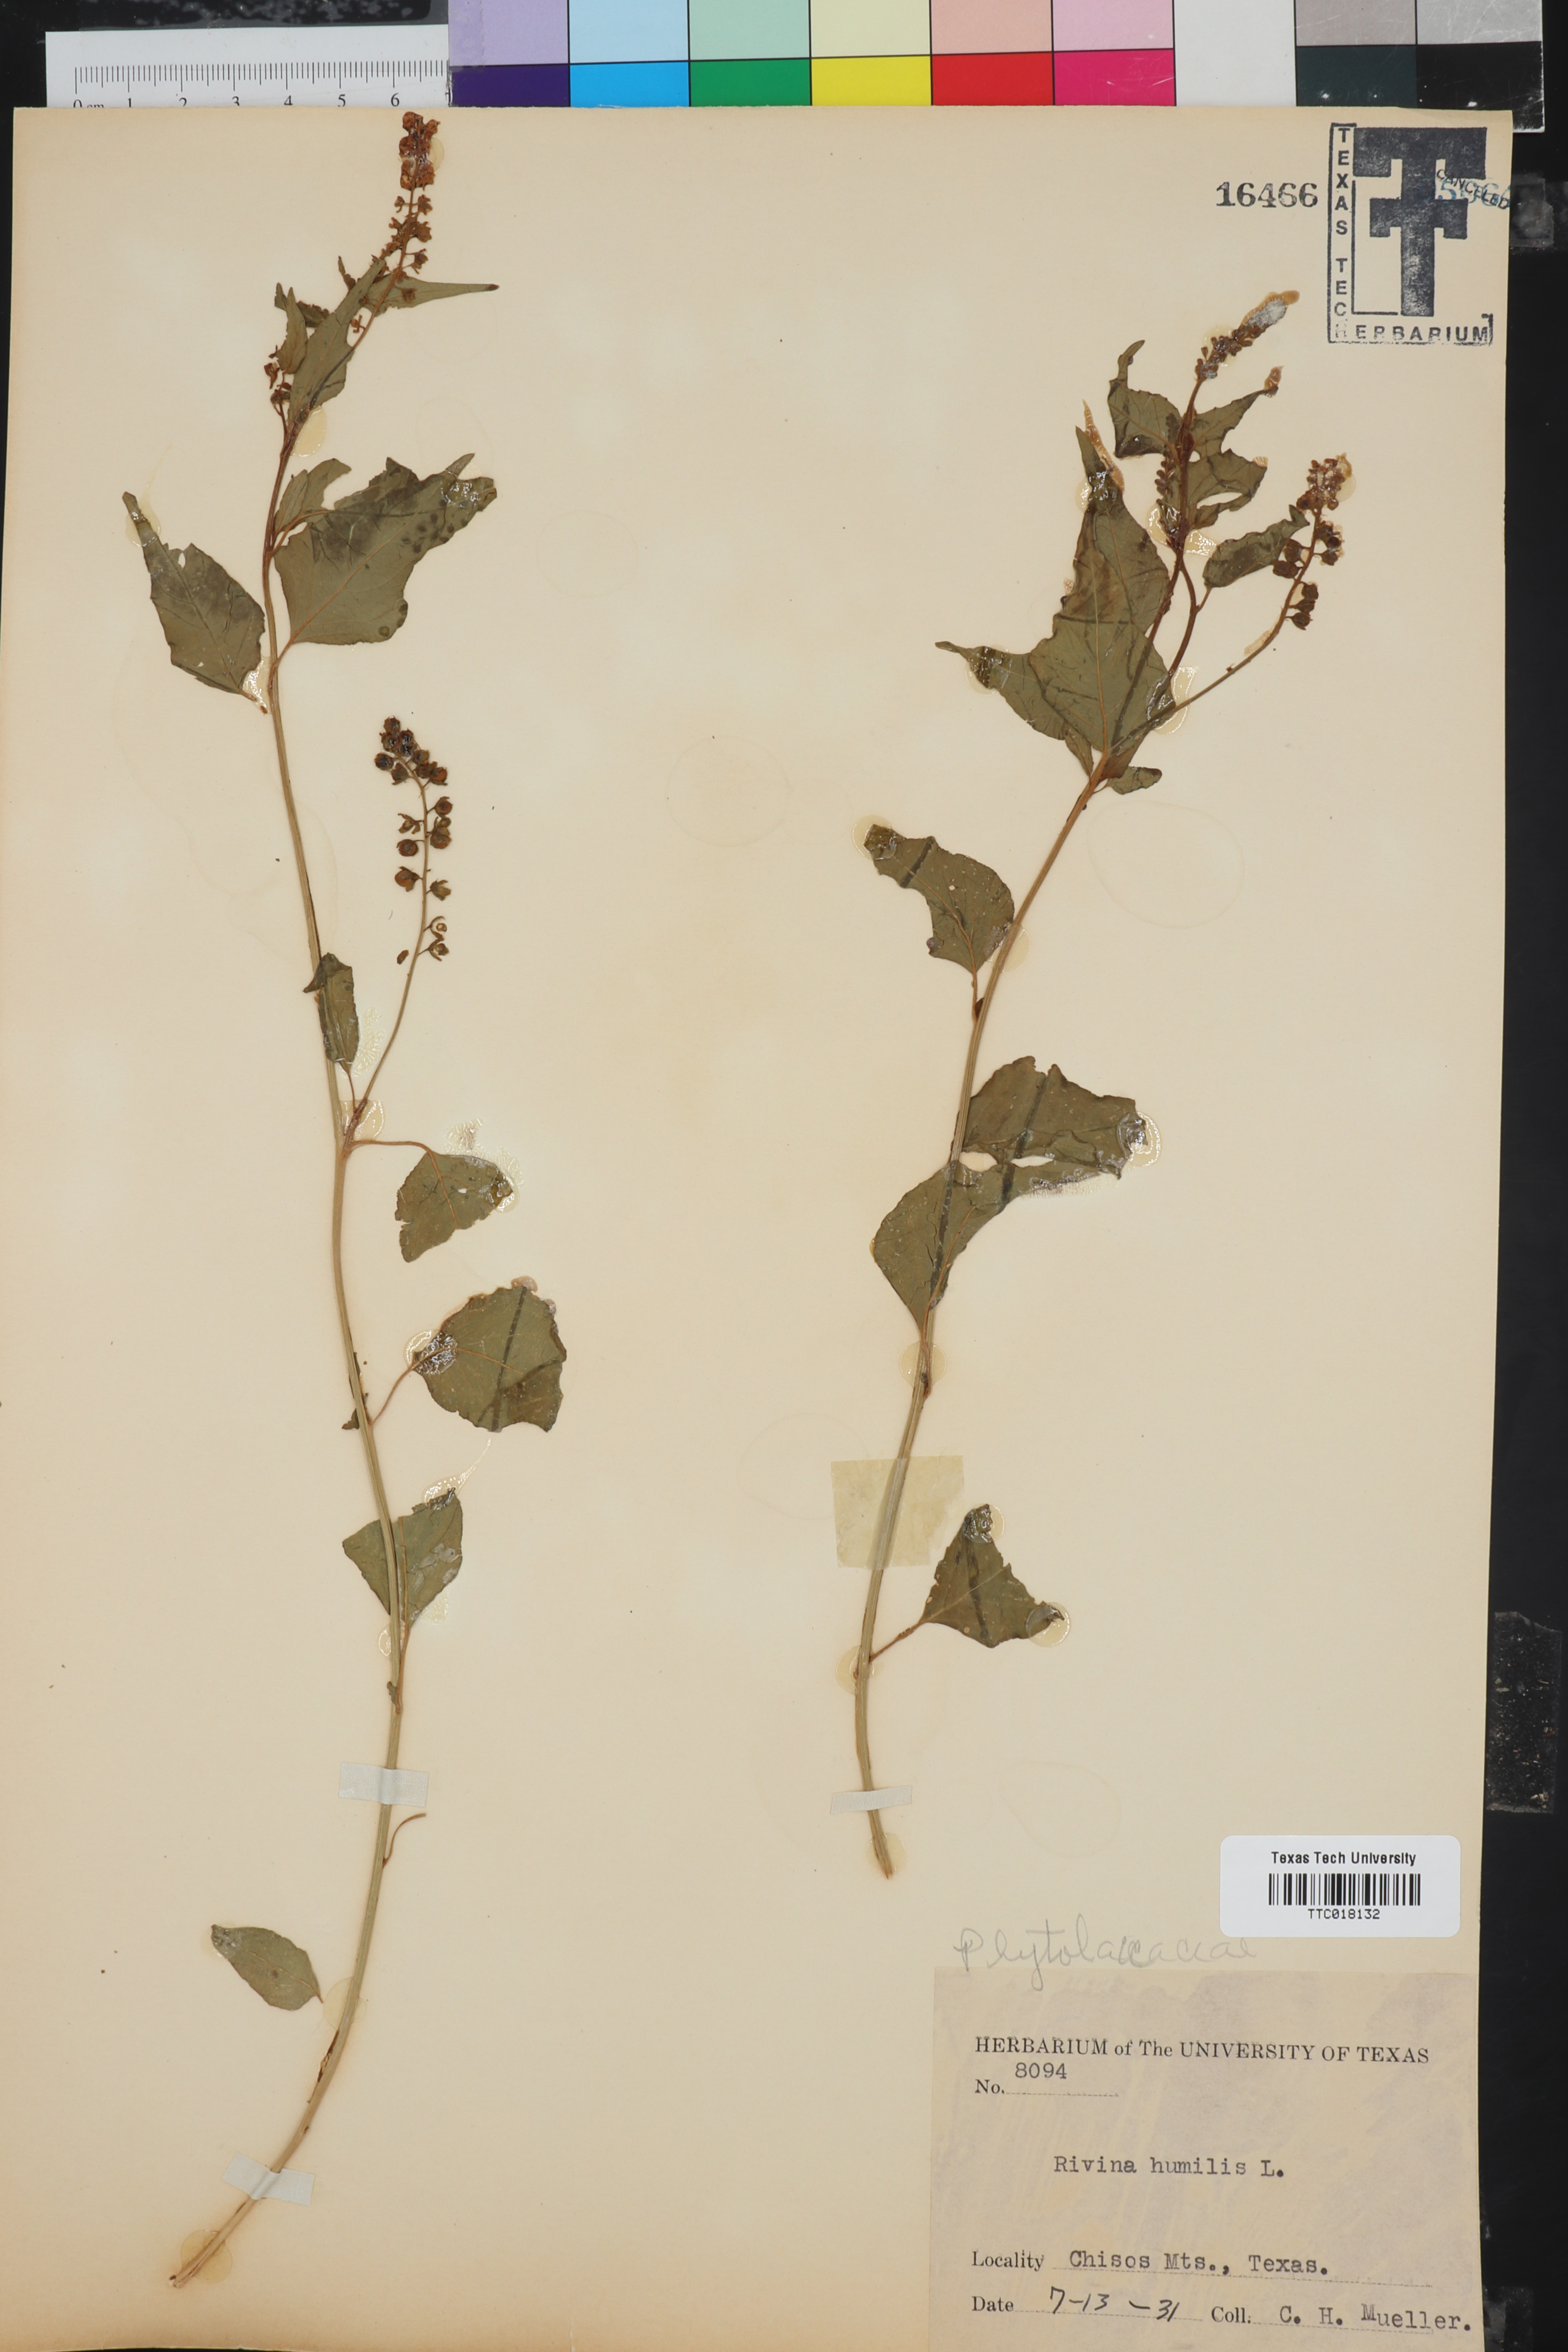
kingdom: Plantae
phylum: Tracheophyta
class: Magnoliopsida
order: Caryophyllales
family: Phytolaccaceae
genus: Rivina
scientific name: Rivina humilis
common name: Rougeplant
